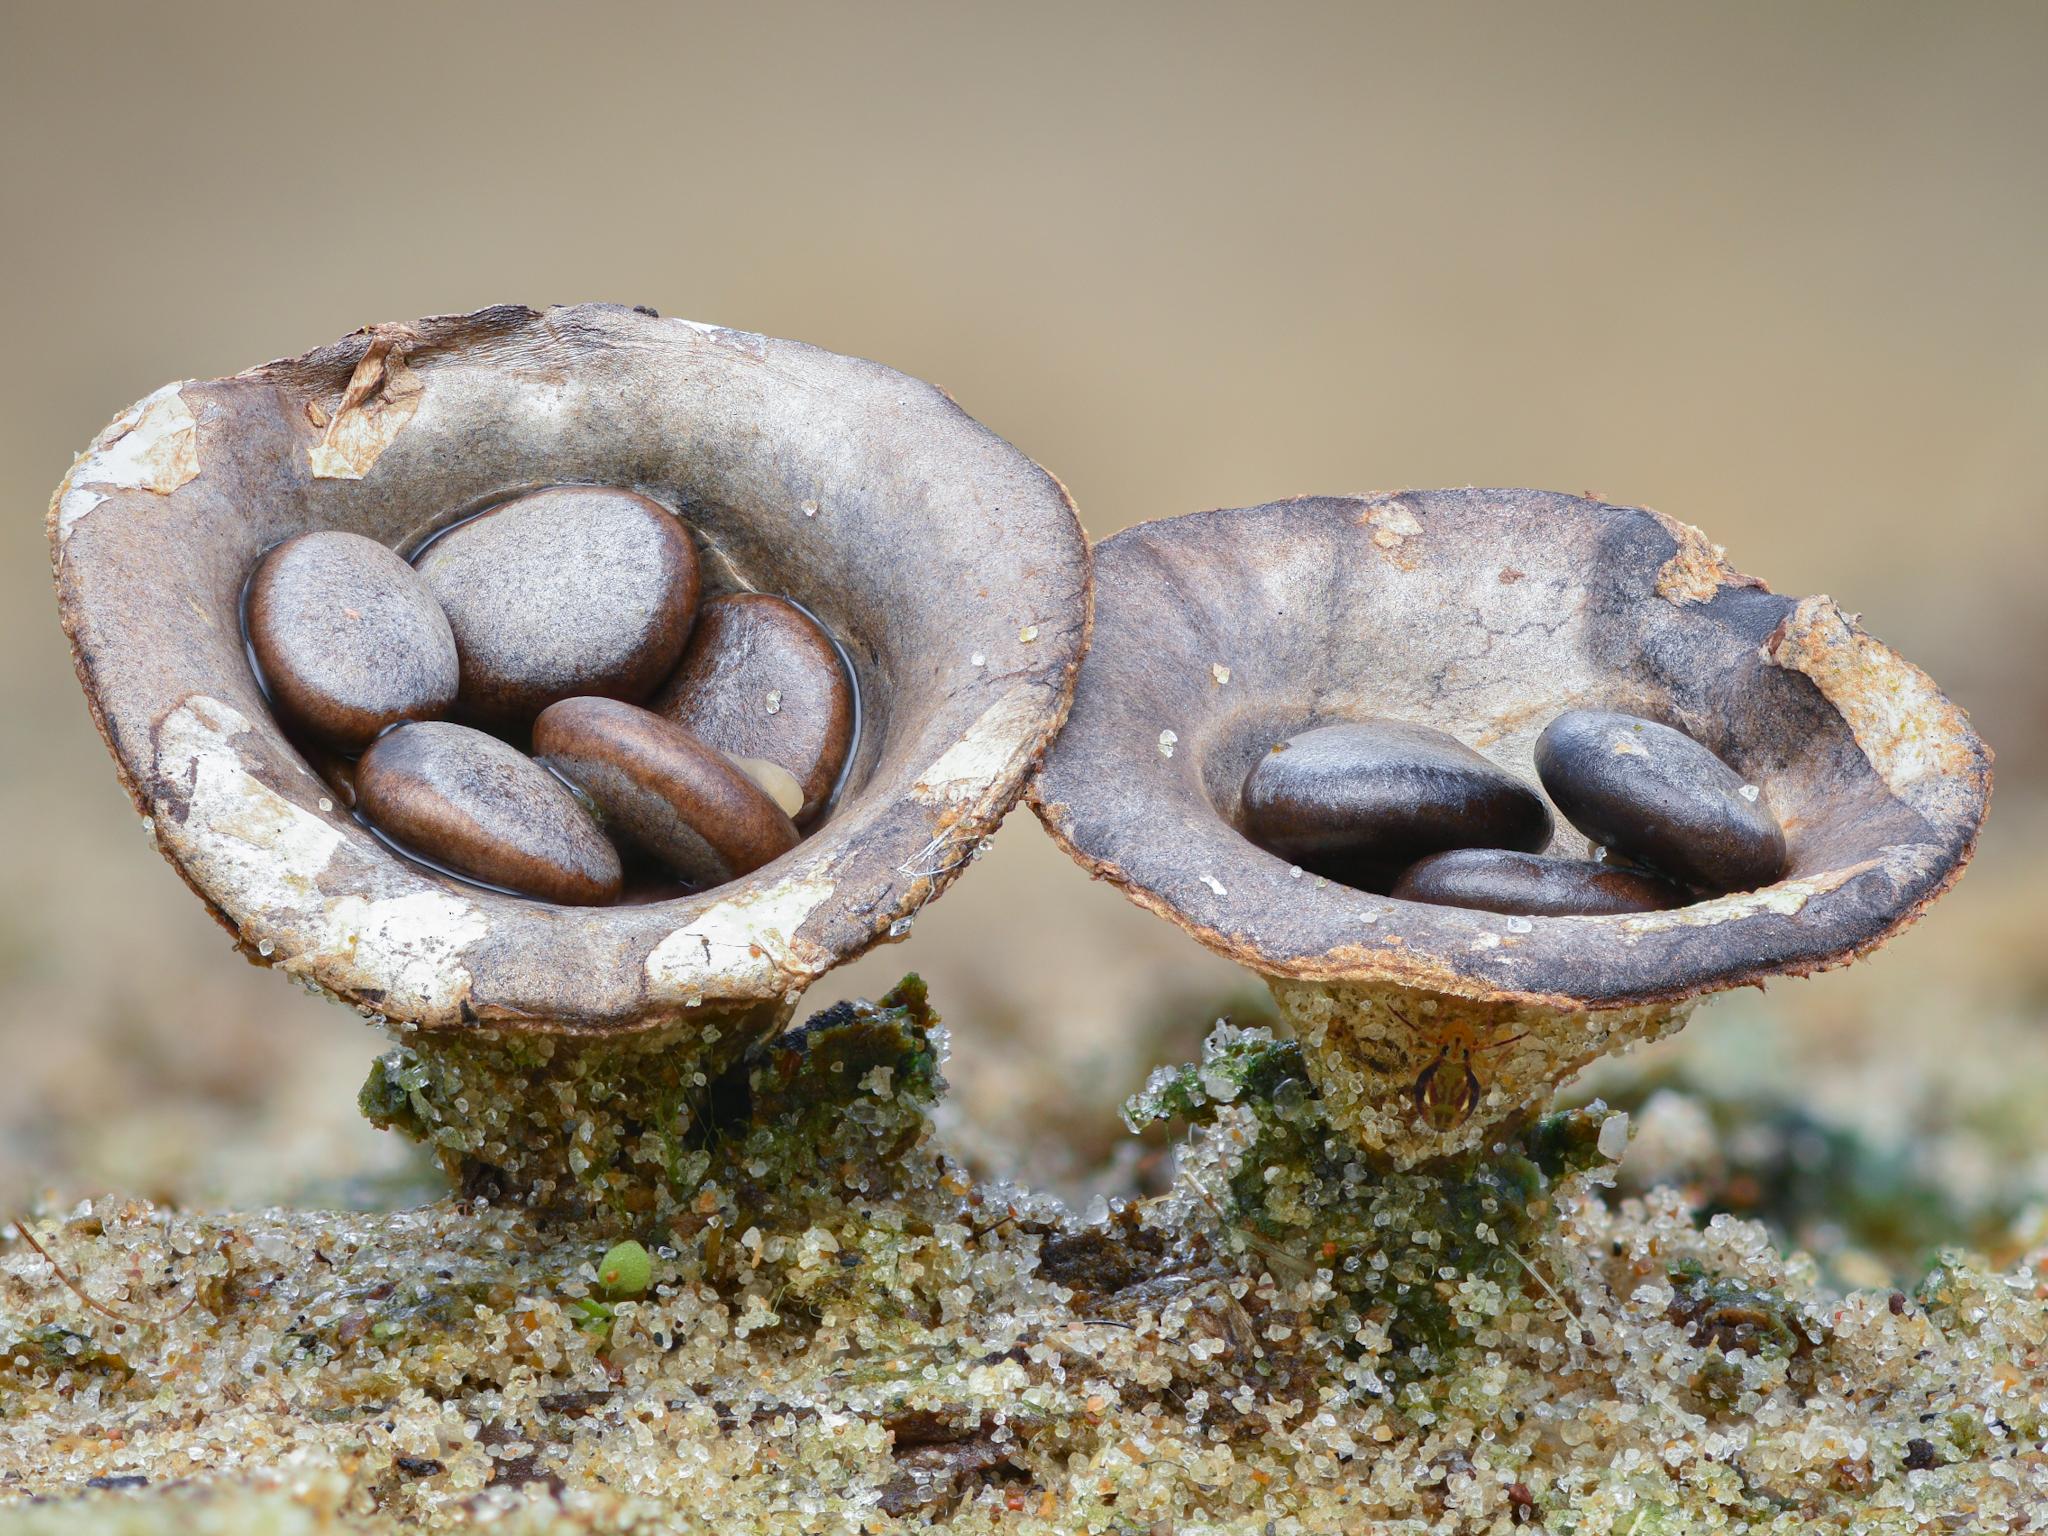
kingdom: Fungi
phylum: Basidiomycota
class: Agaricomycetes
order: Agaricales
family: Agaricaceae
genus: Cyathus
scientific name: Cyathus olla
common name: klokke-redesvamp
